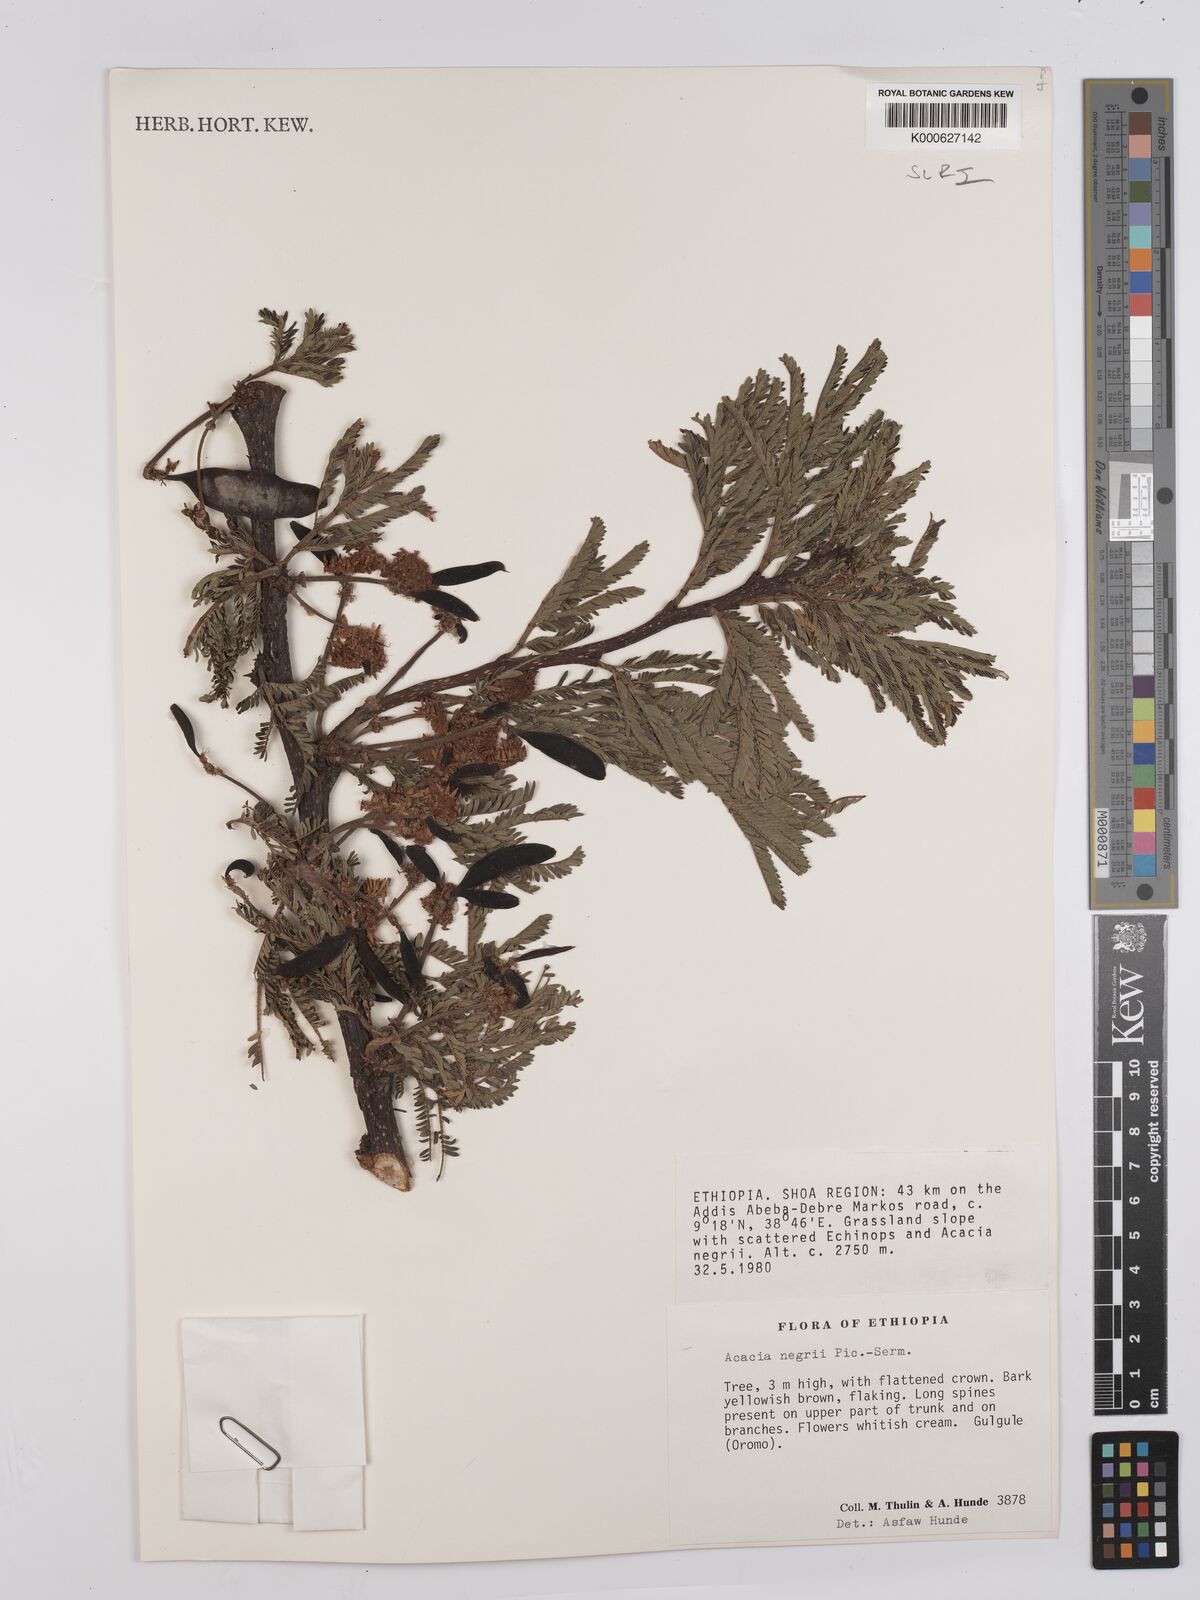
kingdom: Plantae
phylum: Tracheophyta
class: Magnoliopsida
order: Fabales
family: Fabaceae
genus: Vachellia
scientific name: Vachellia negrii
